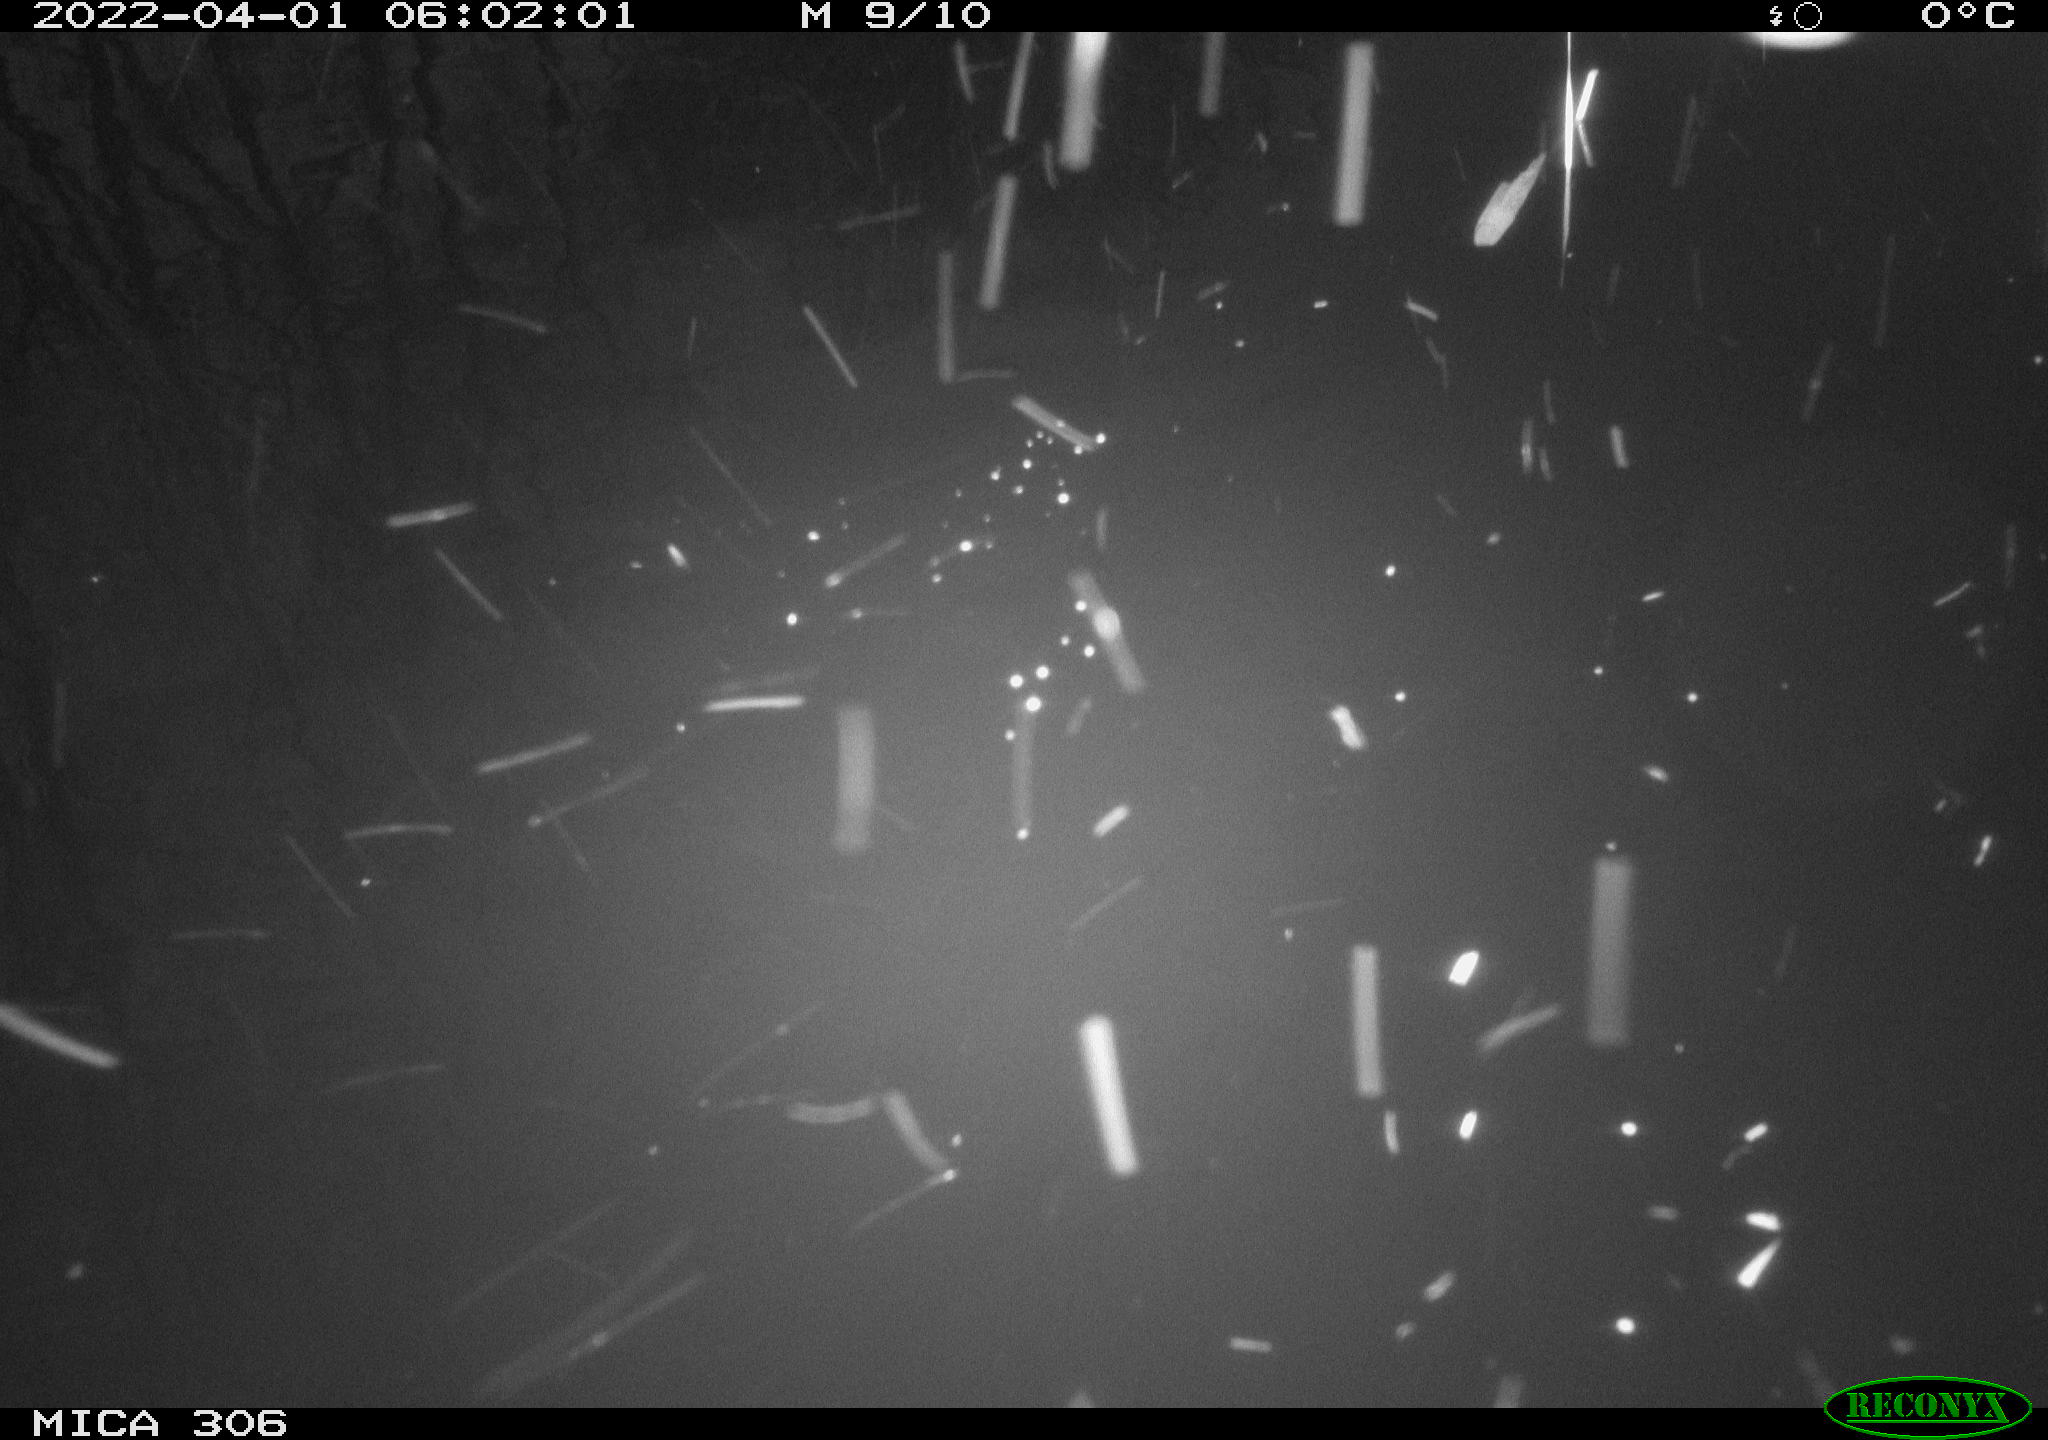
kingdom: Animalia
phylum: Chordata
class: Aves
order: Gruiformes
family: Rallidae
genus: Gallinula
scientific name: Gallinula chloropus
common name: Common moorhen
